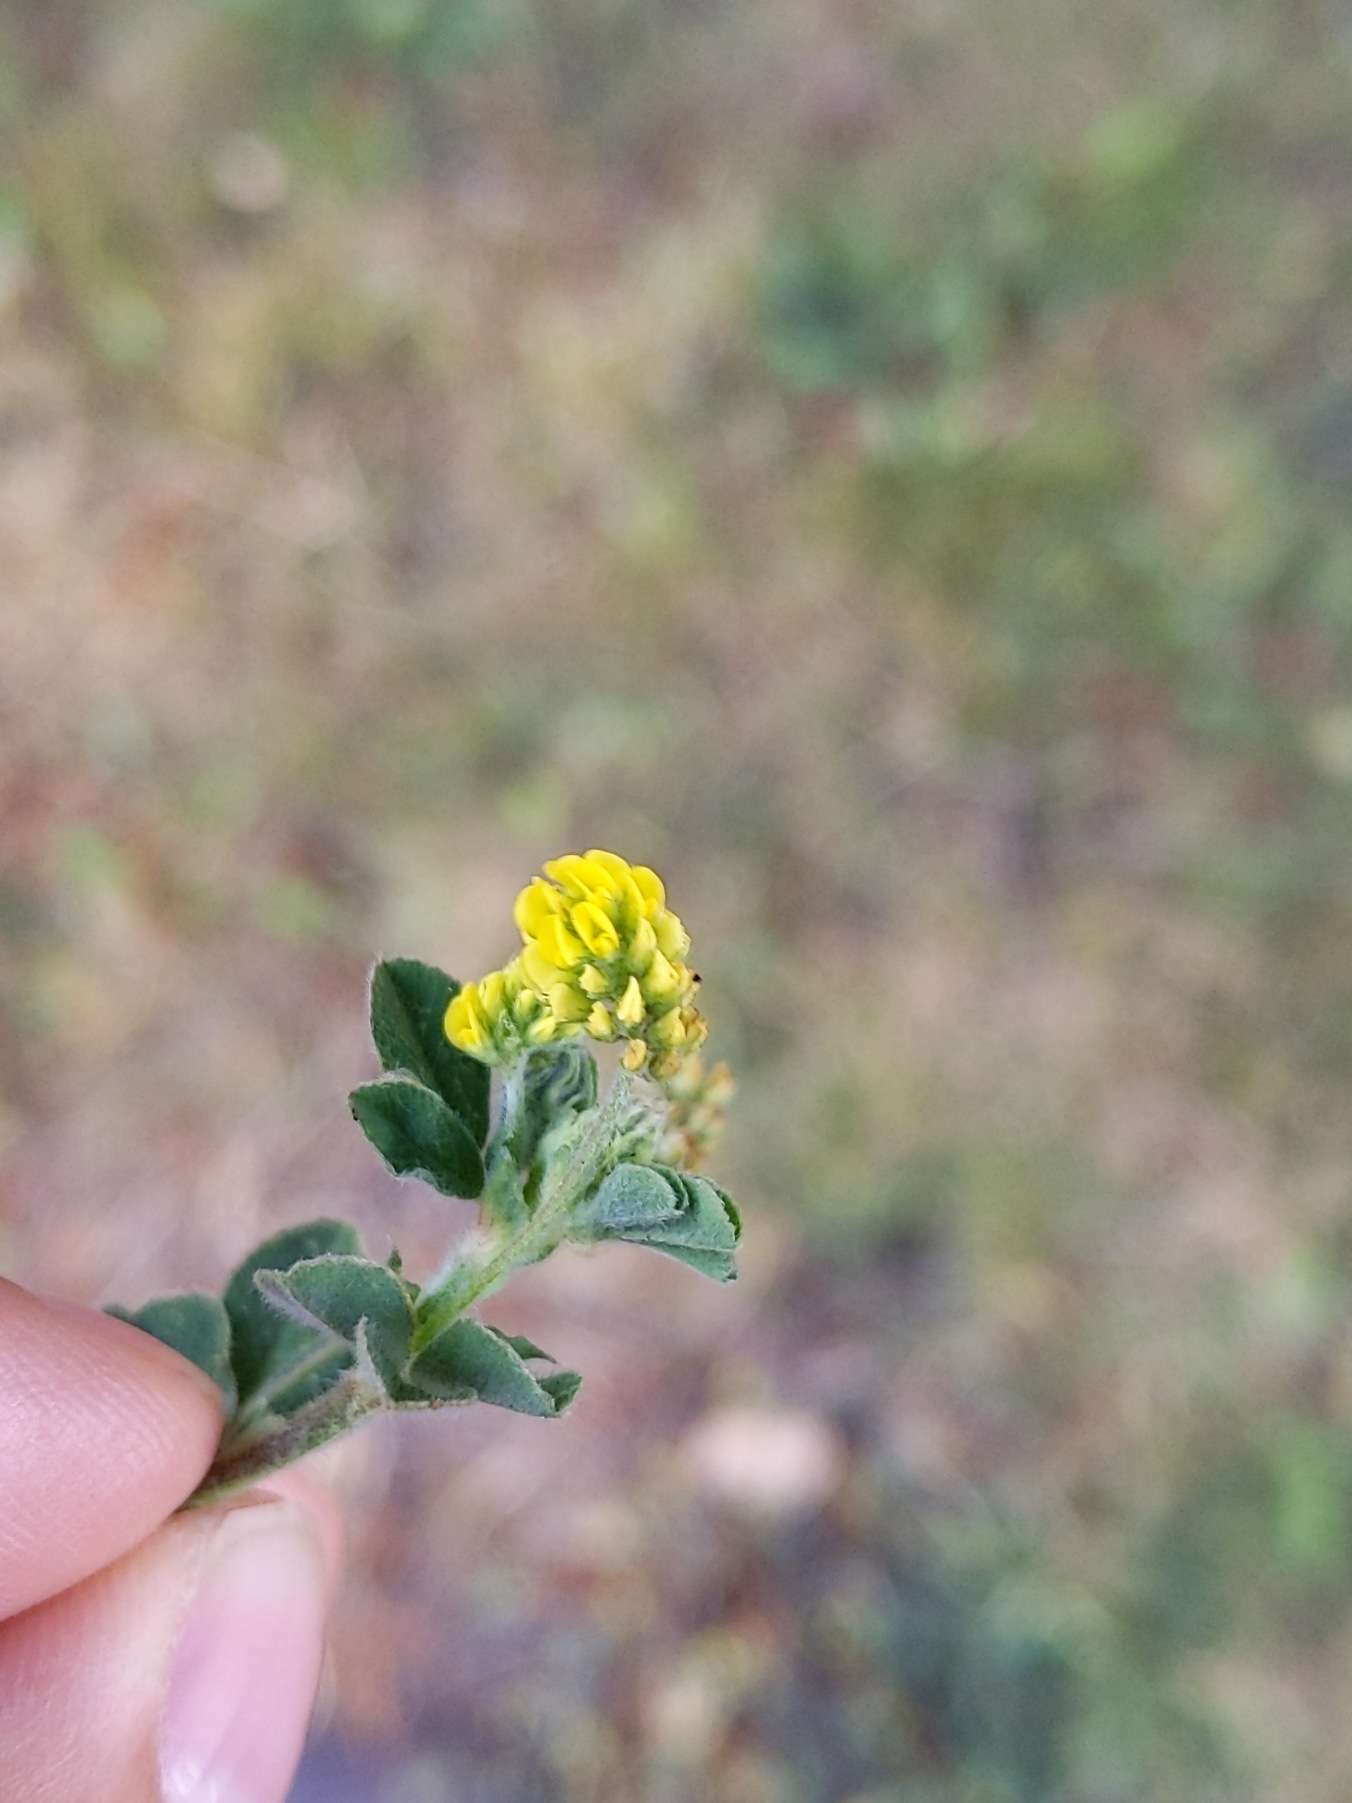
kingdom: Plantae
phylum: Tracheophyta
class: Magnoliopsida
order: Fabales
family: Fabaceae
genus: Medicago
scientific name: Medicago lupulina
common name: Humle-sneglebælg
